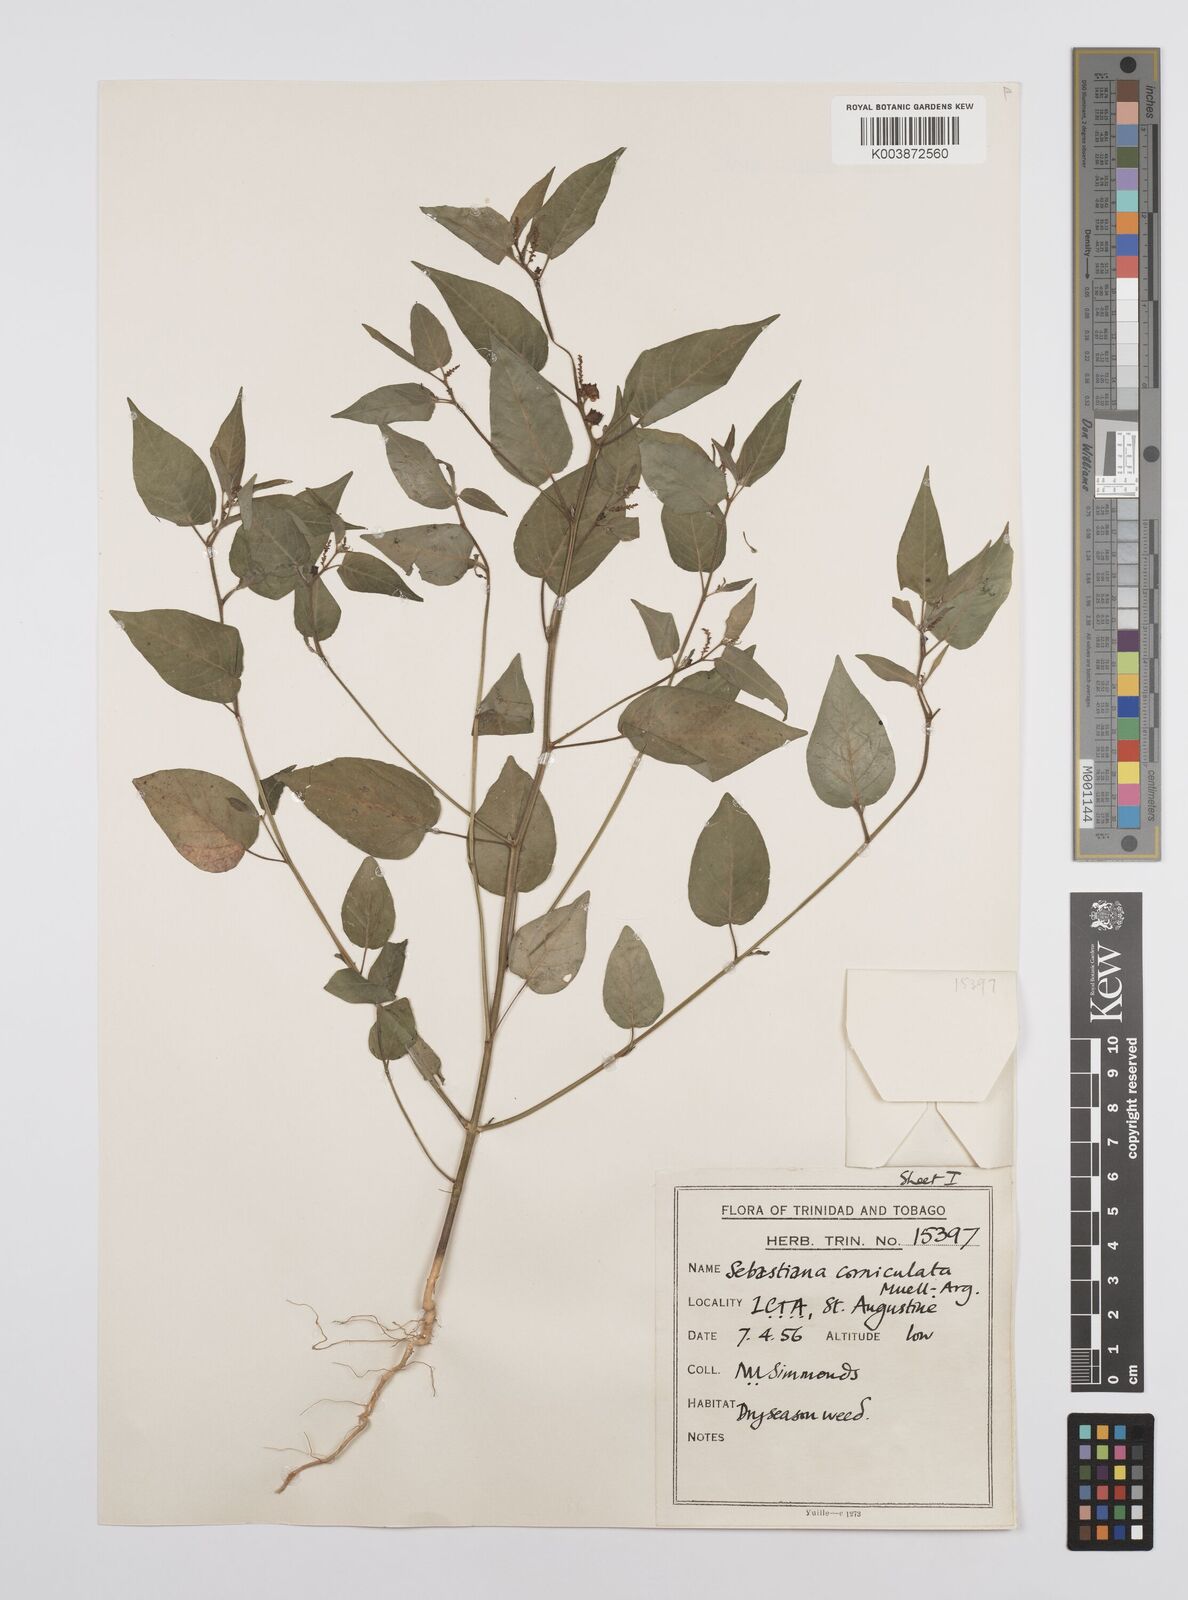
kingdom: Plantae
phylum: Tracheophyta
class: Magnoliopsida
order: Malpighiales
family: Euphorbiaceae
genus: Microstachys
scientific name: Microstachys corniculata
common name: Hato tejas
